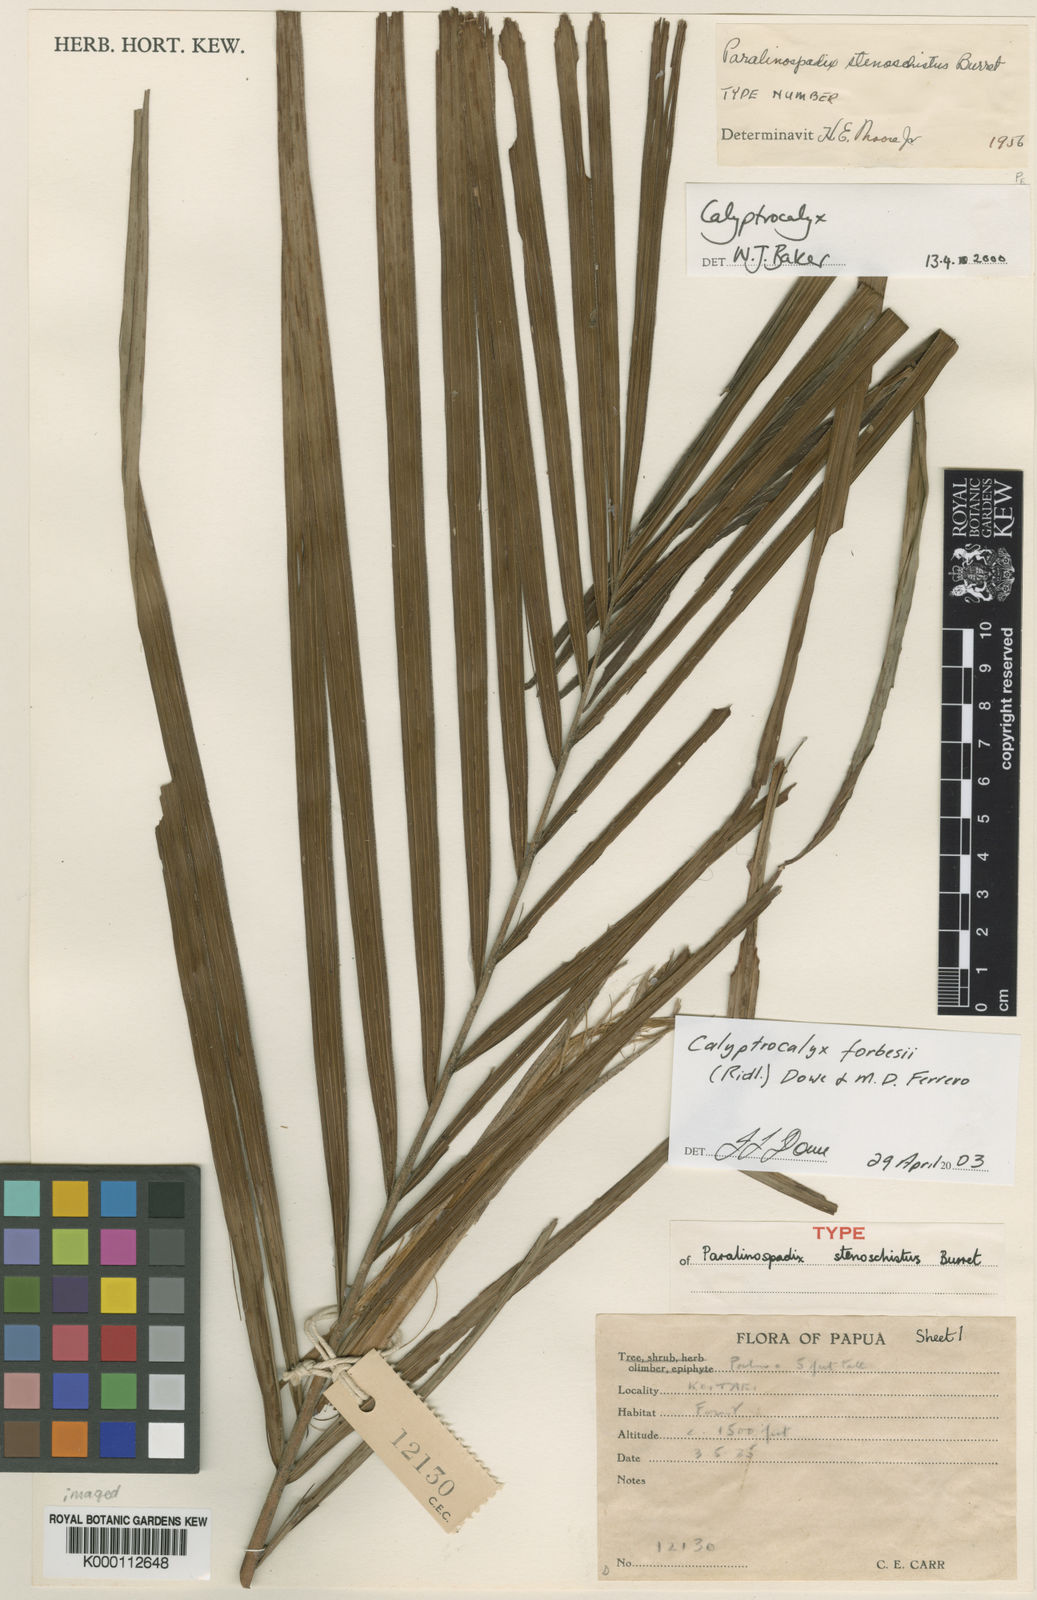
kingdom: Plantae
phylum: Tracheophyta
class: Liliopsida
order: Arecales
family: Arecaceae
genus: Calyptrocalyx
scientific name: Calyptrocalyx forbesii
